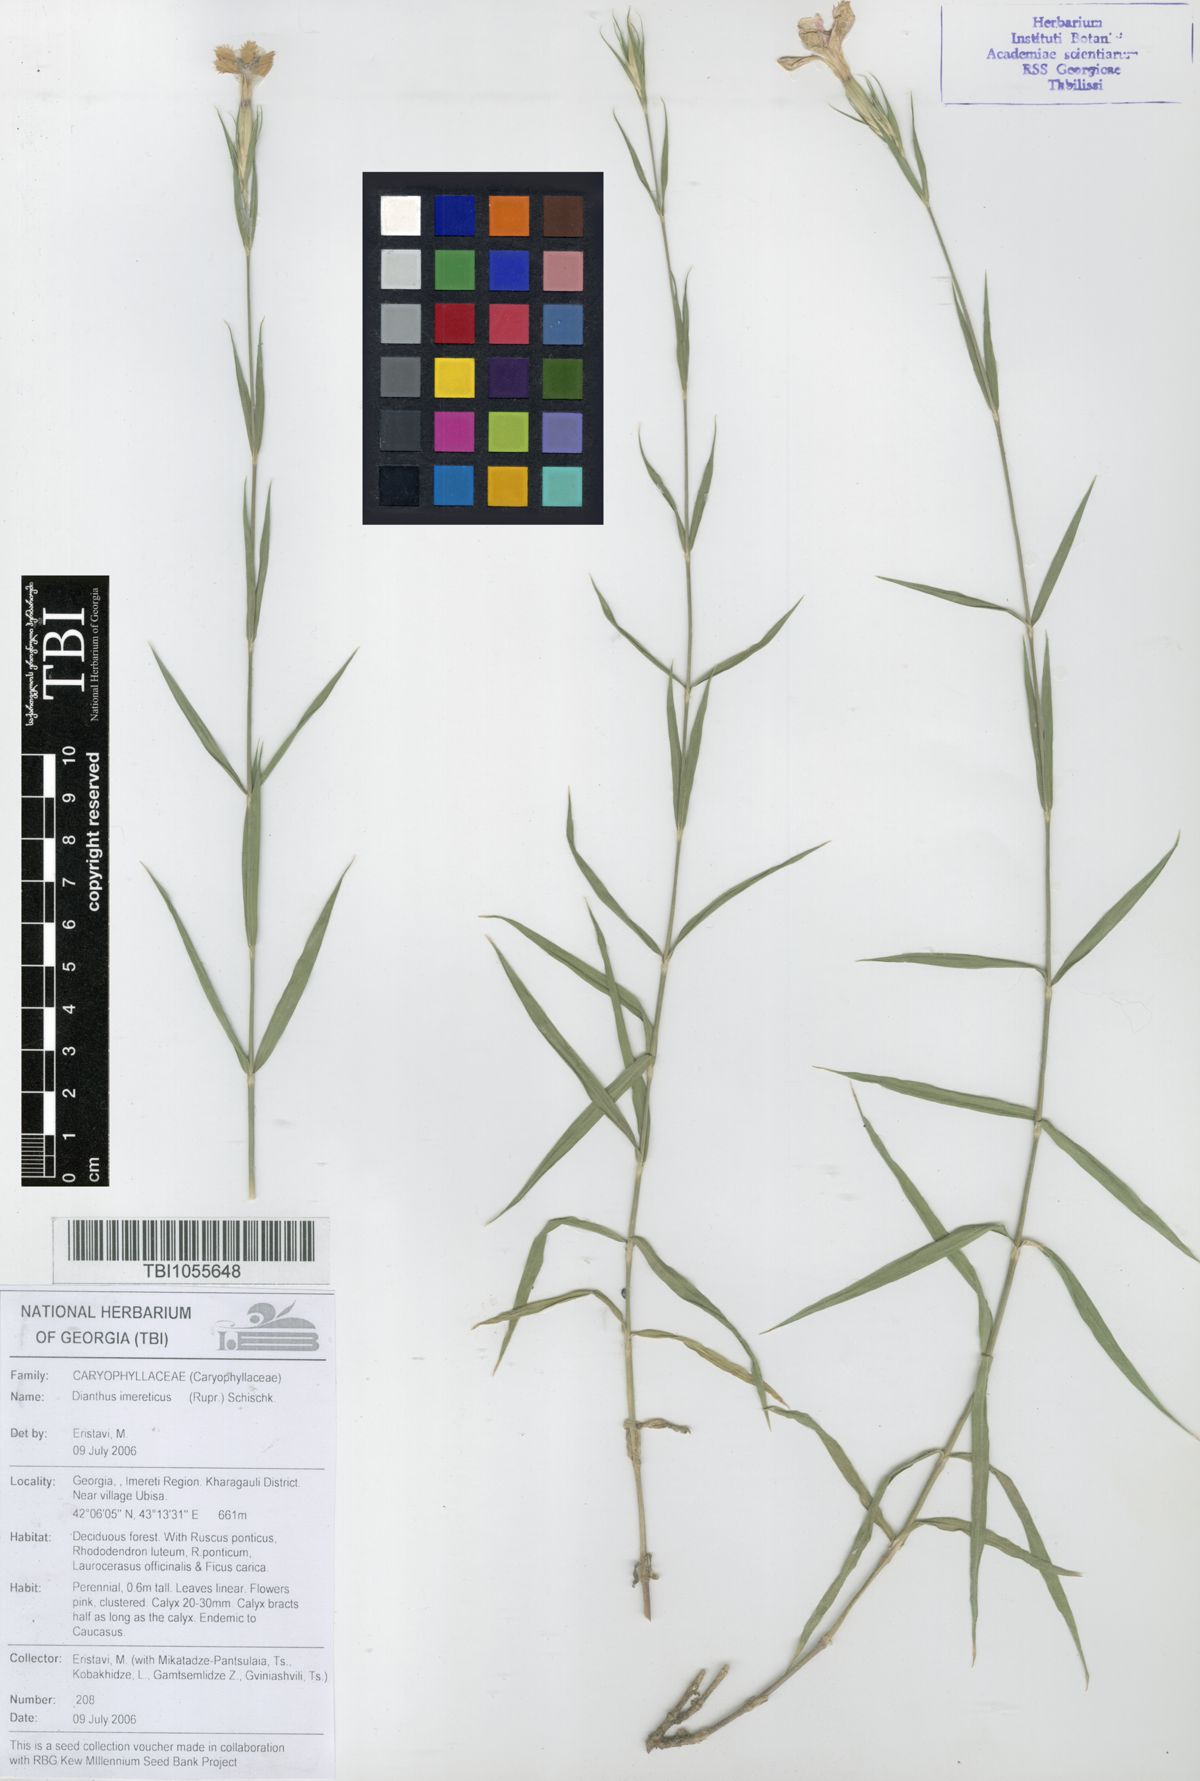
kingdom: Plantae
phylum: Tracheophyta
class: Magnoliopsida
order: Caryophyllales
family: Caryophyllaceae
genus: Dianthus
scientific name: Dianthus imereticus
